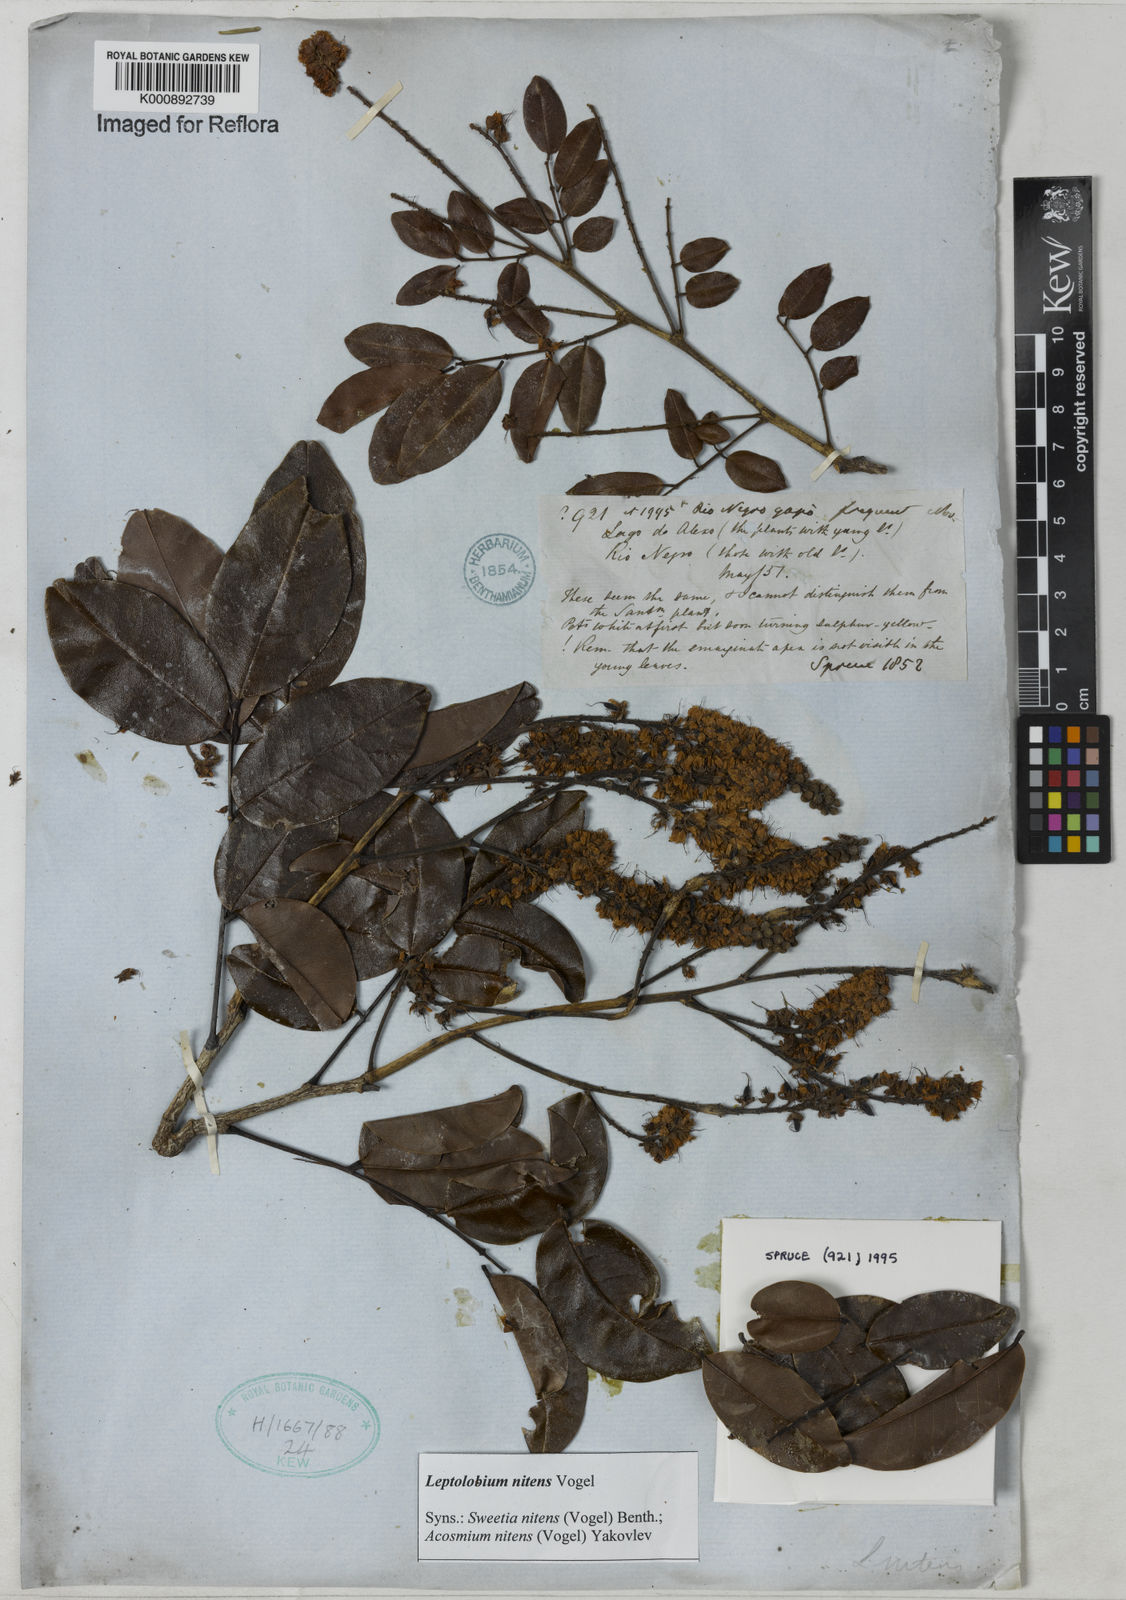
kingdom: Plantae
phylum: Tracheophyta
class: Magnoliopsida
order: Fabales
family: Fabaceae
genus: Leptolobium
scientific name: Leptolobium nitens
